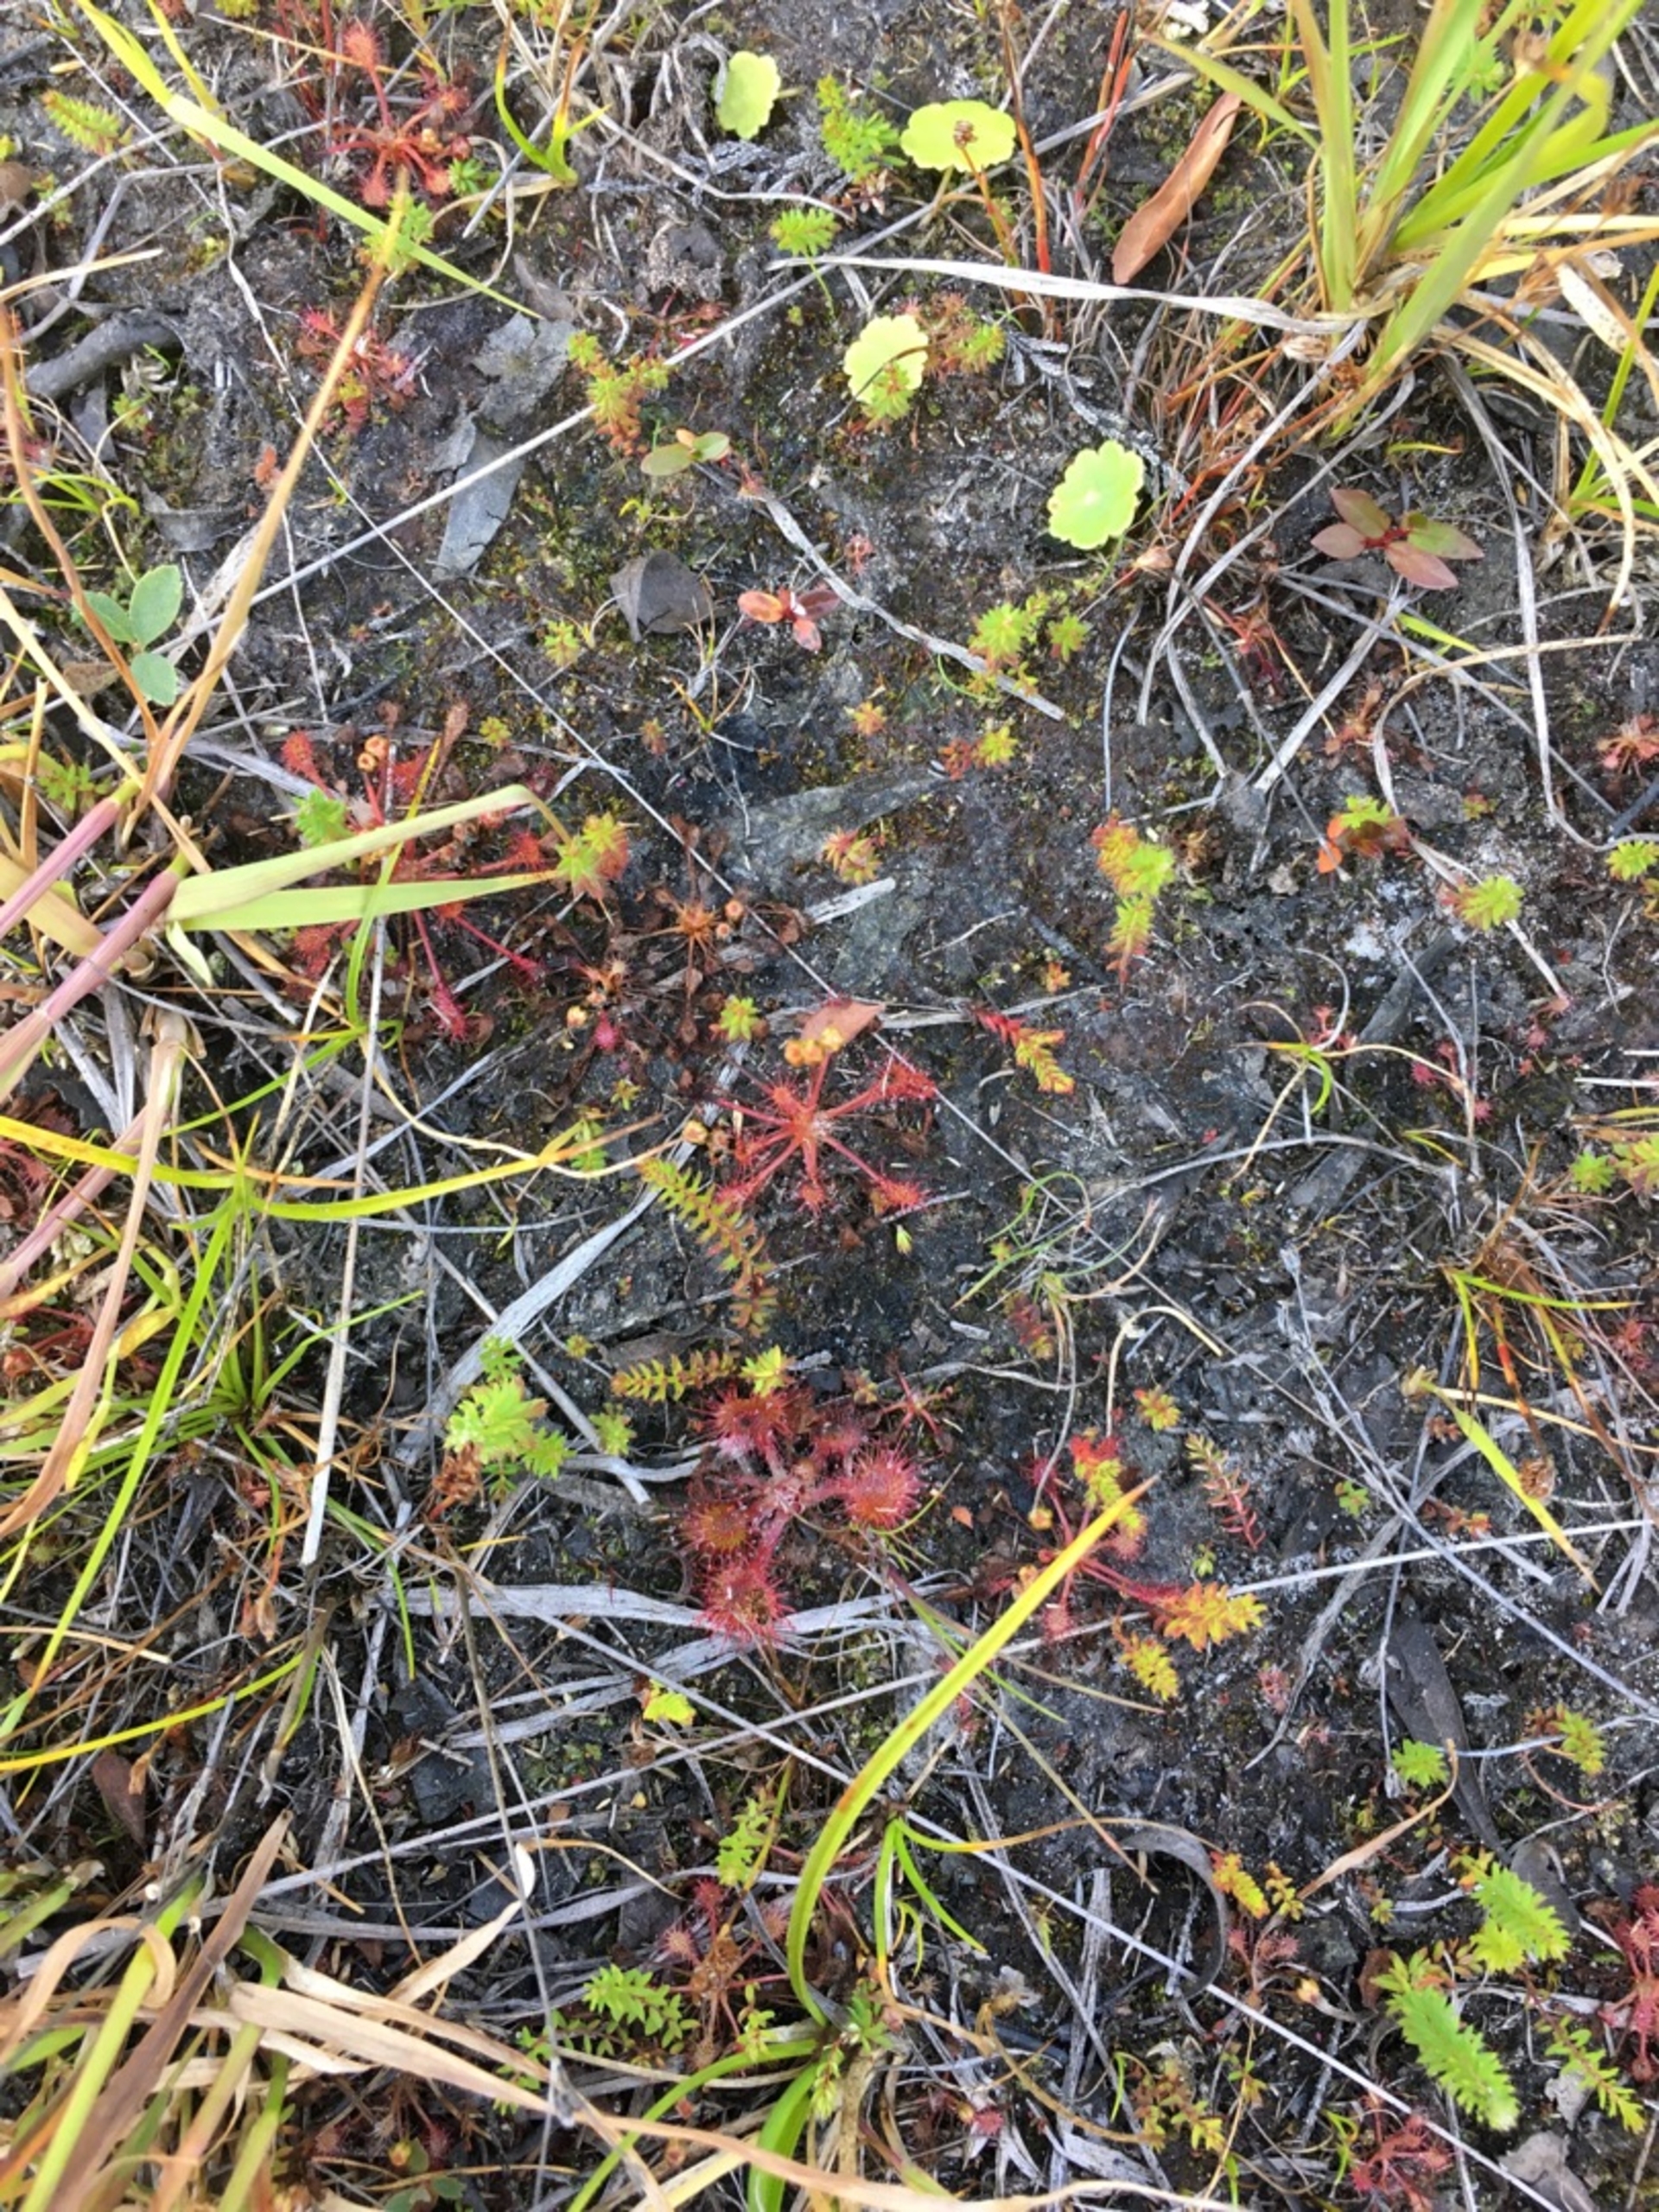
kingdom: Plantae
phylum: Tracheophyta
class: Magnoliopsida
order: Caryophyllales
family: Droseraceae
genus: Drosera
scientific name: Drosera rotundifolia
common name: Rundbladet soldug
